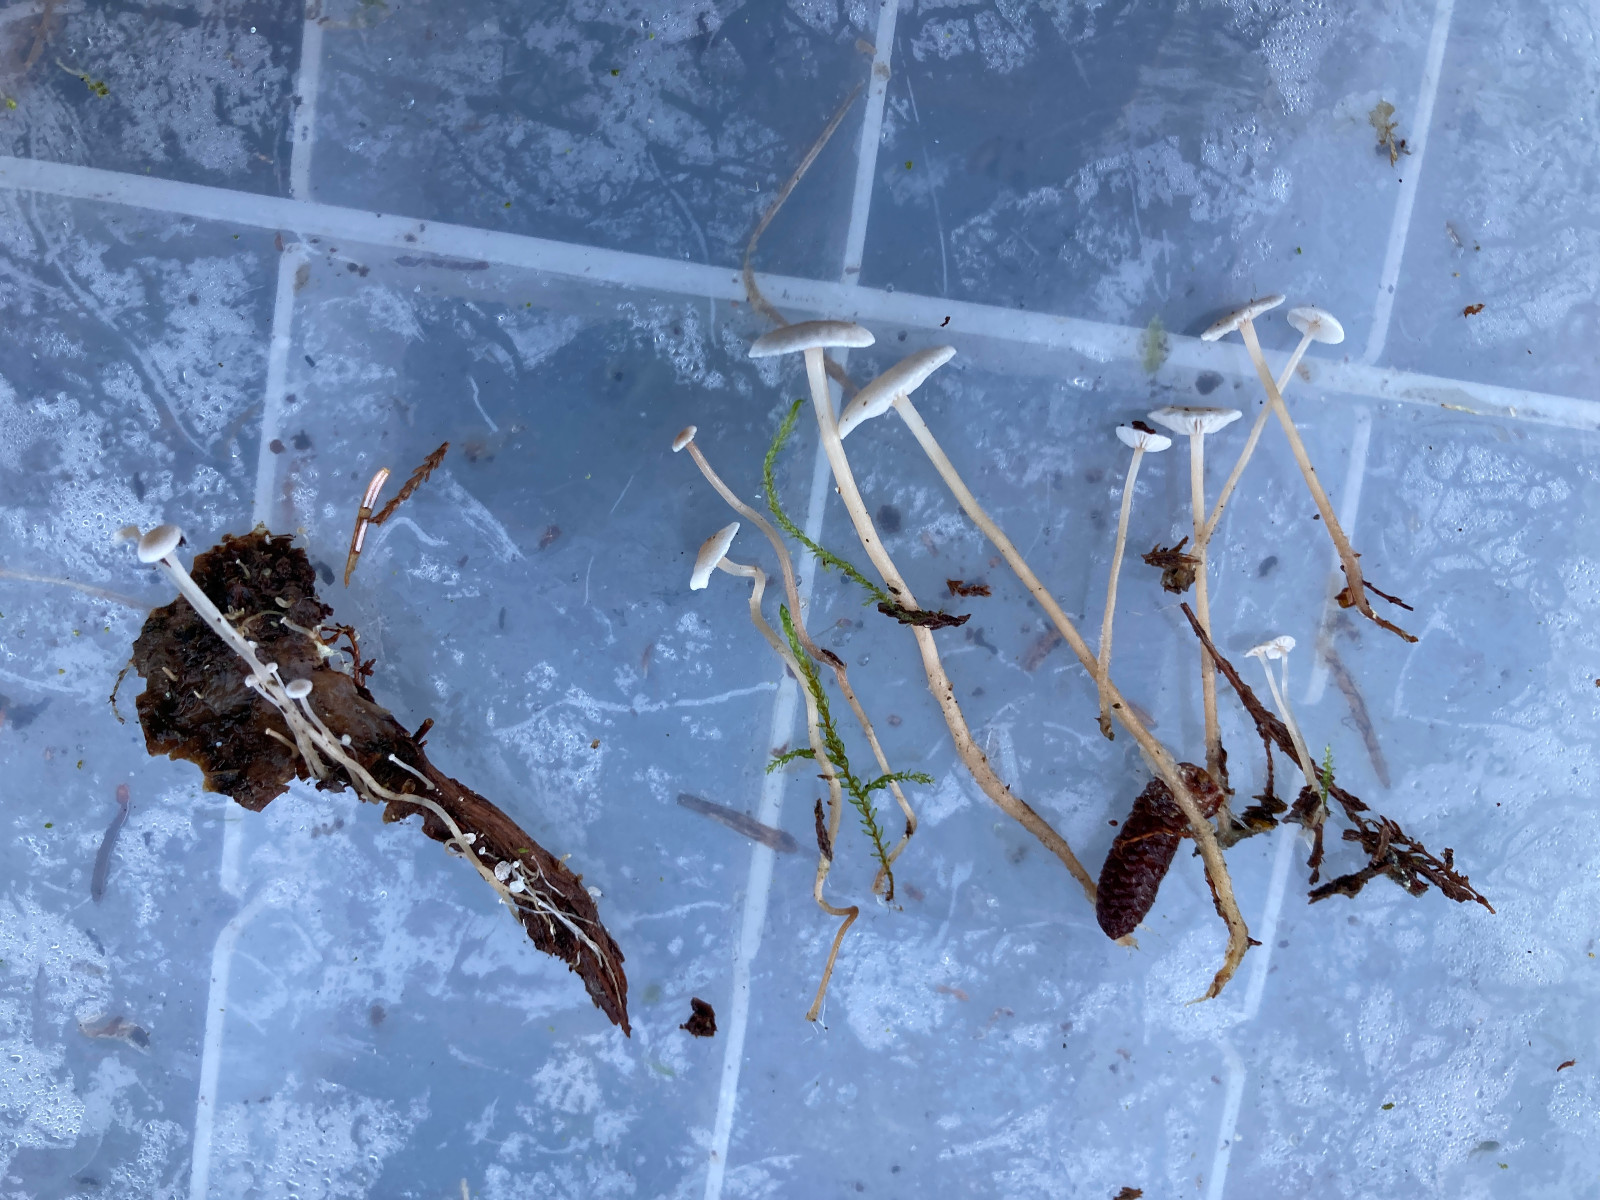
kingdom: Fungi
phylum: Basidiomycota
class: Agaricomycetes
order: Agaricales
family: Tricholomataceae
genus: Collybia
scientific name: Collybia cirrhata
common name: silke-lighat
